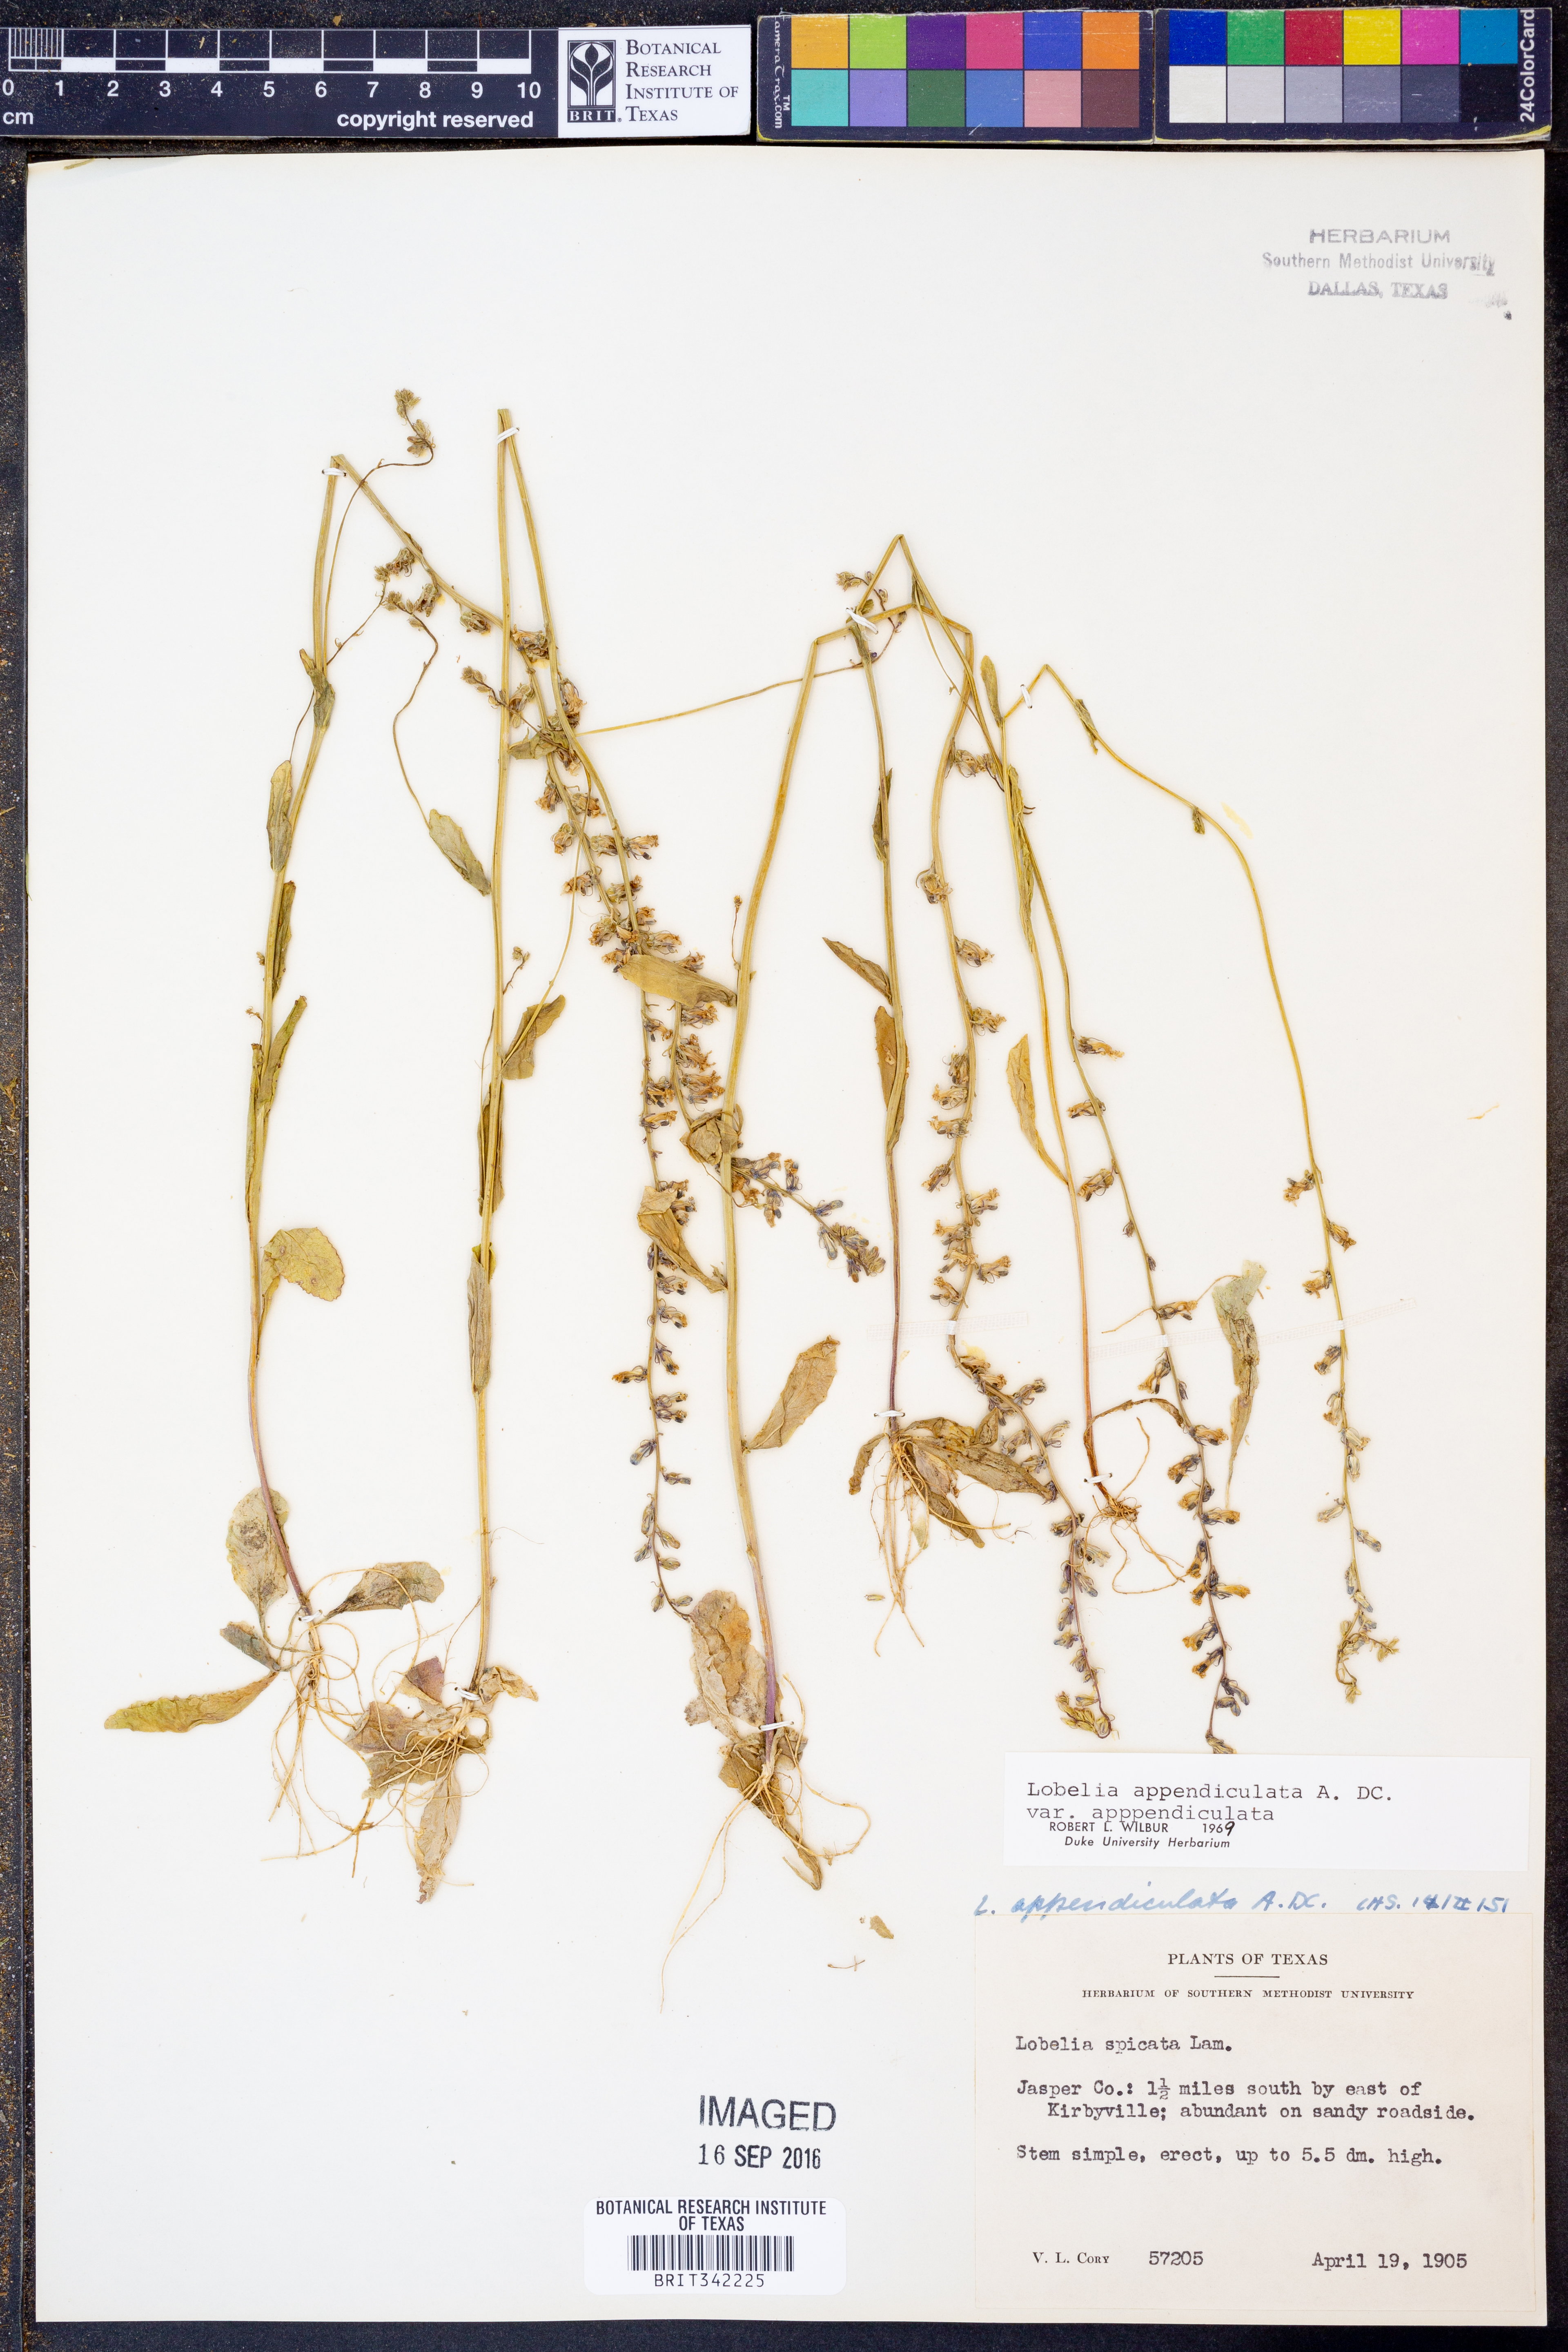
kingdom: Plantae
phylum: Tracheophyta
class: Magnoliopsida
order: Asterales
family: Campanulaceae
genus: Lobelia
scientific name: Lobelia appendiculata
